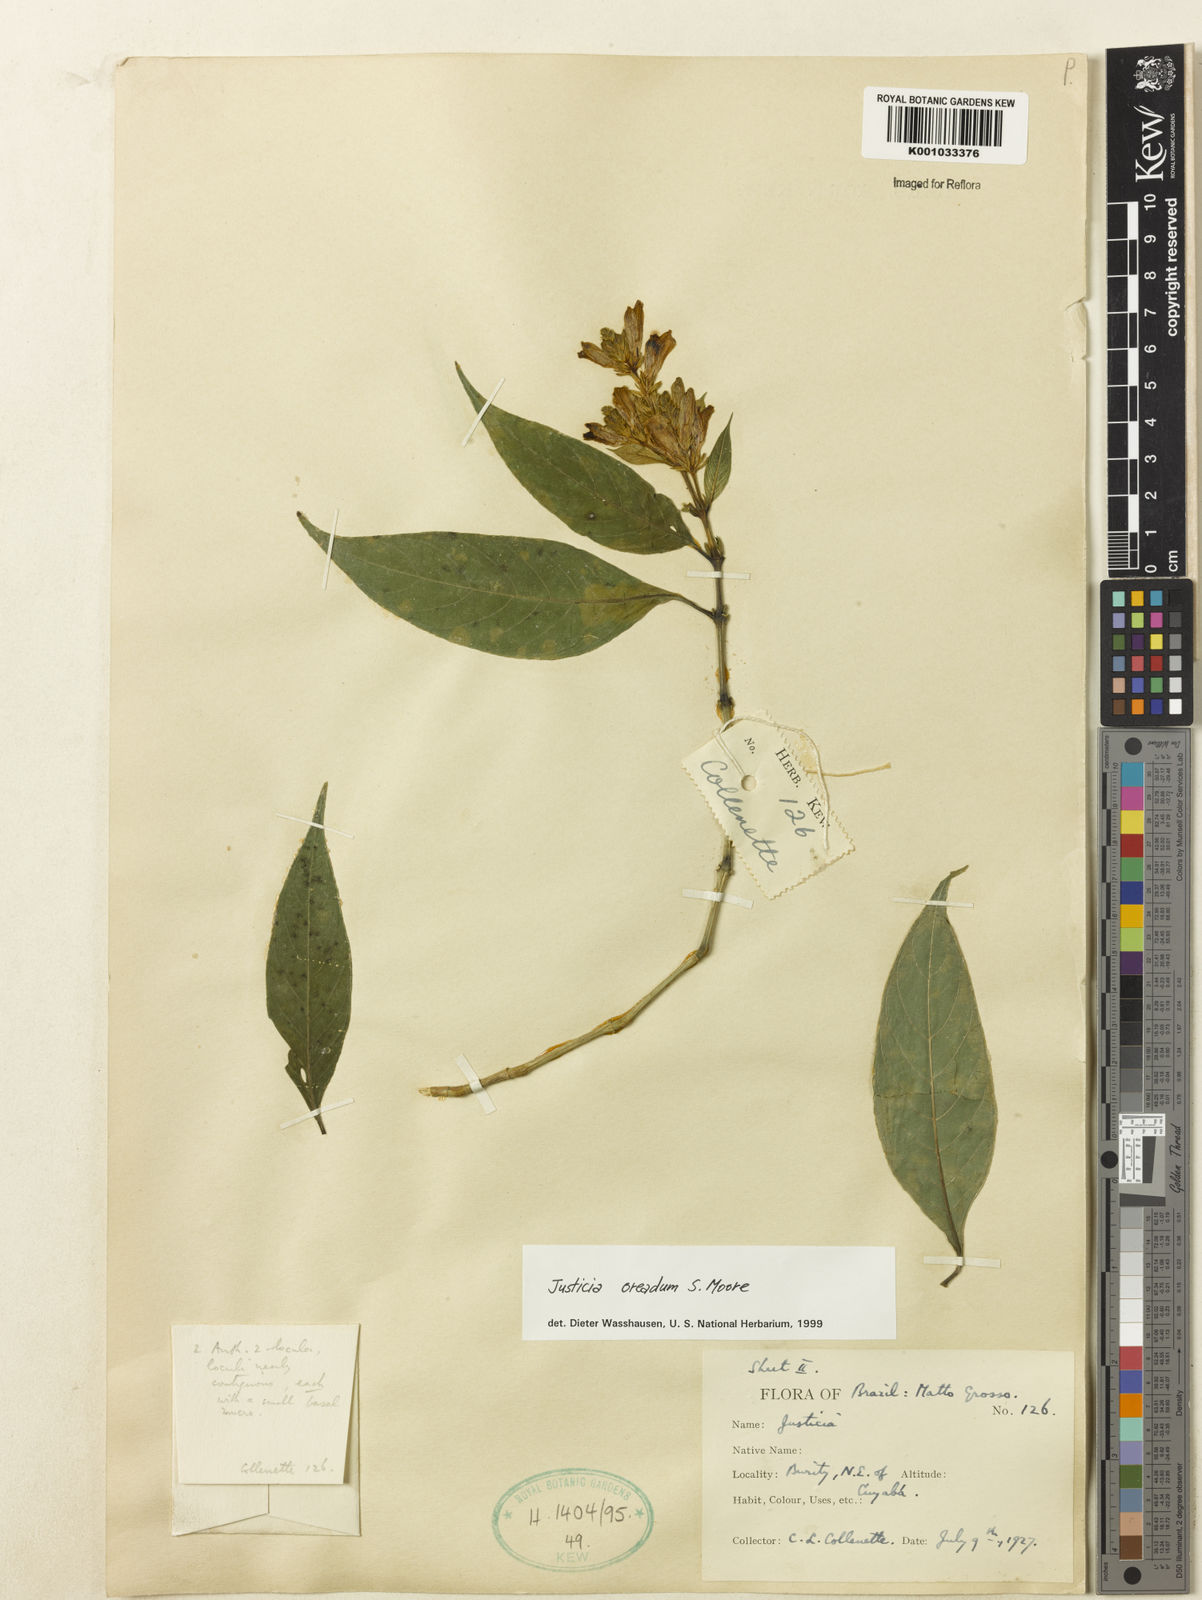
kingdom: Plantae
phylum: Tracheophyta
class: Magnoliopsida
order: Lamiales
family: Acanthaceae
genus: Justicia
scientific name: Justicia oreadum
